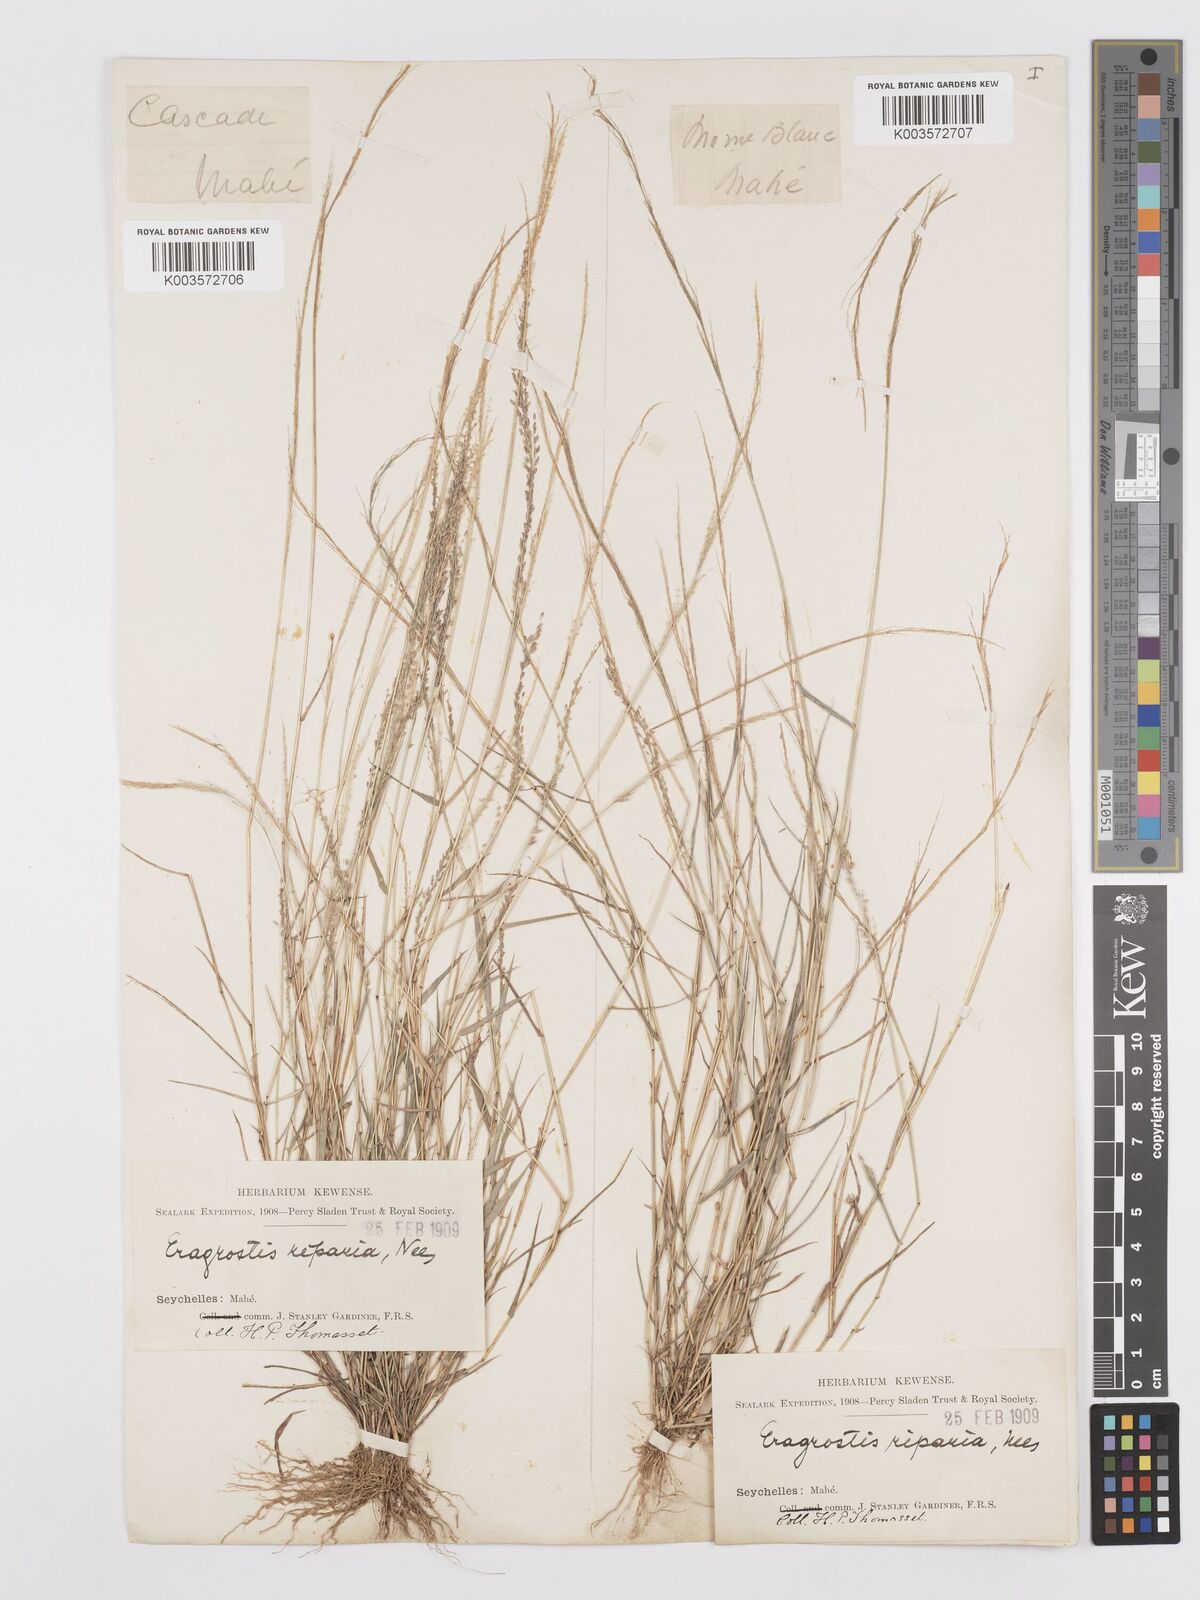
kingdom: Plantae
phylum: Tracheophyta
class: Liliopsida
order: Poales
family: Poaceae
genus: Eragrostis
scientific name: Eragrostis tenella
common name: Japanese lovegrass
